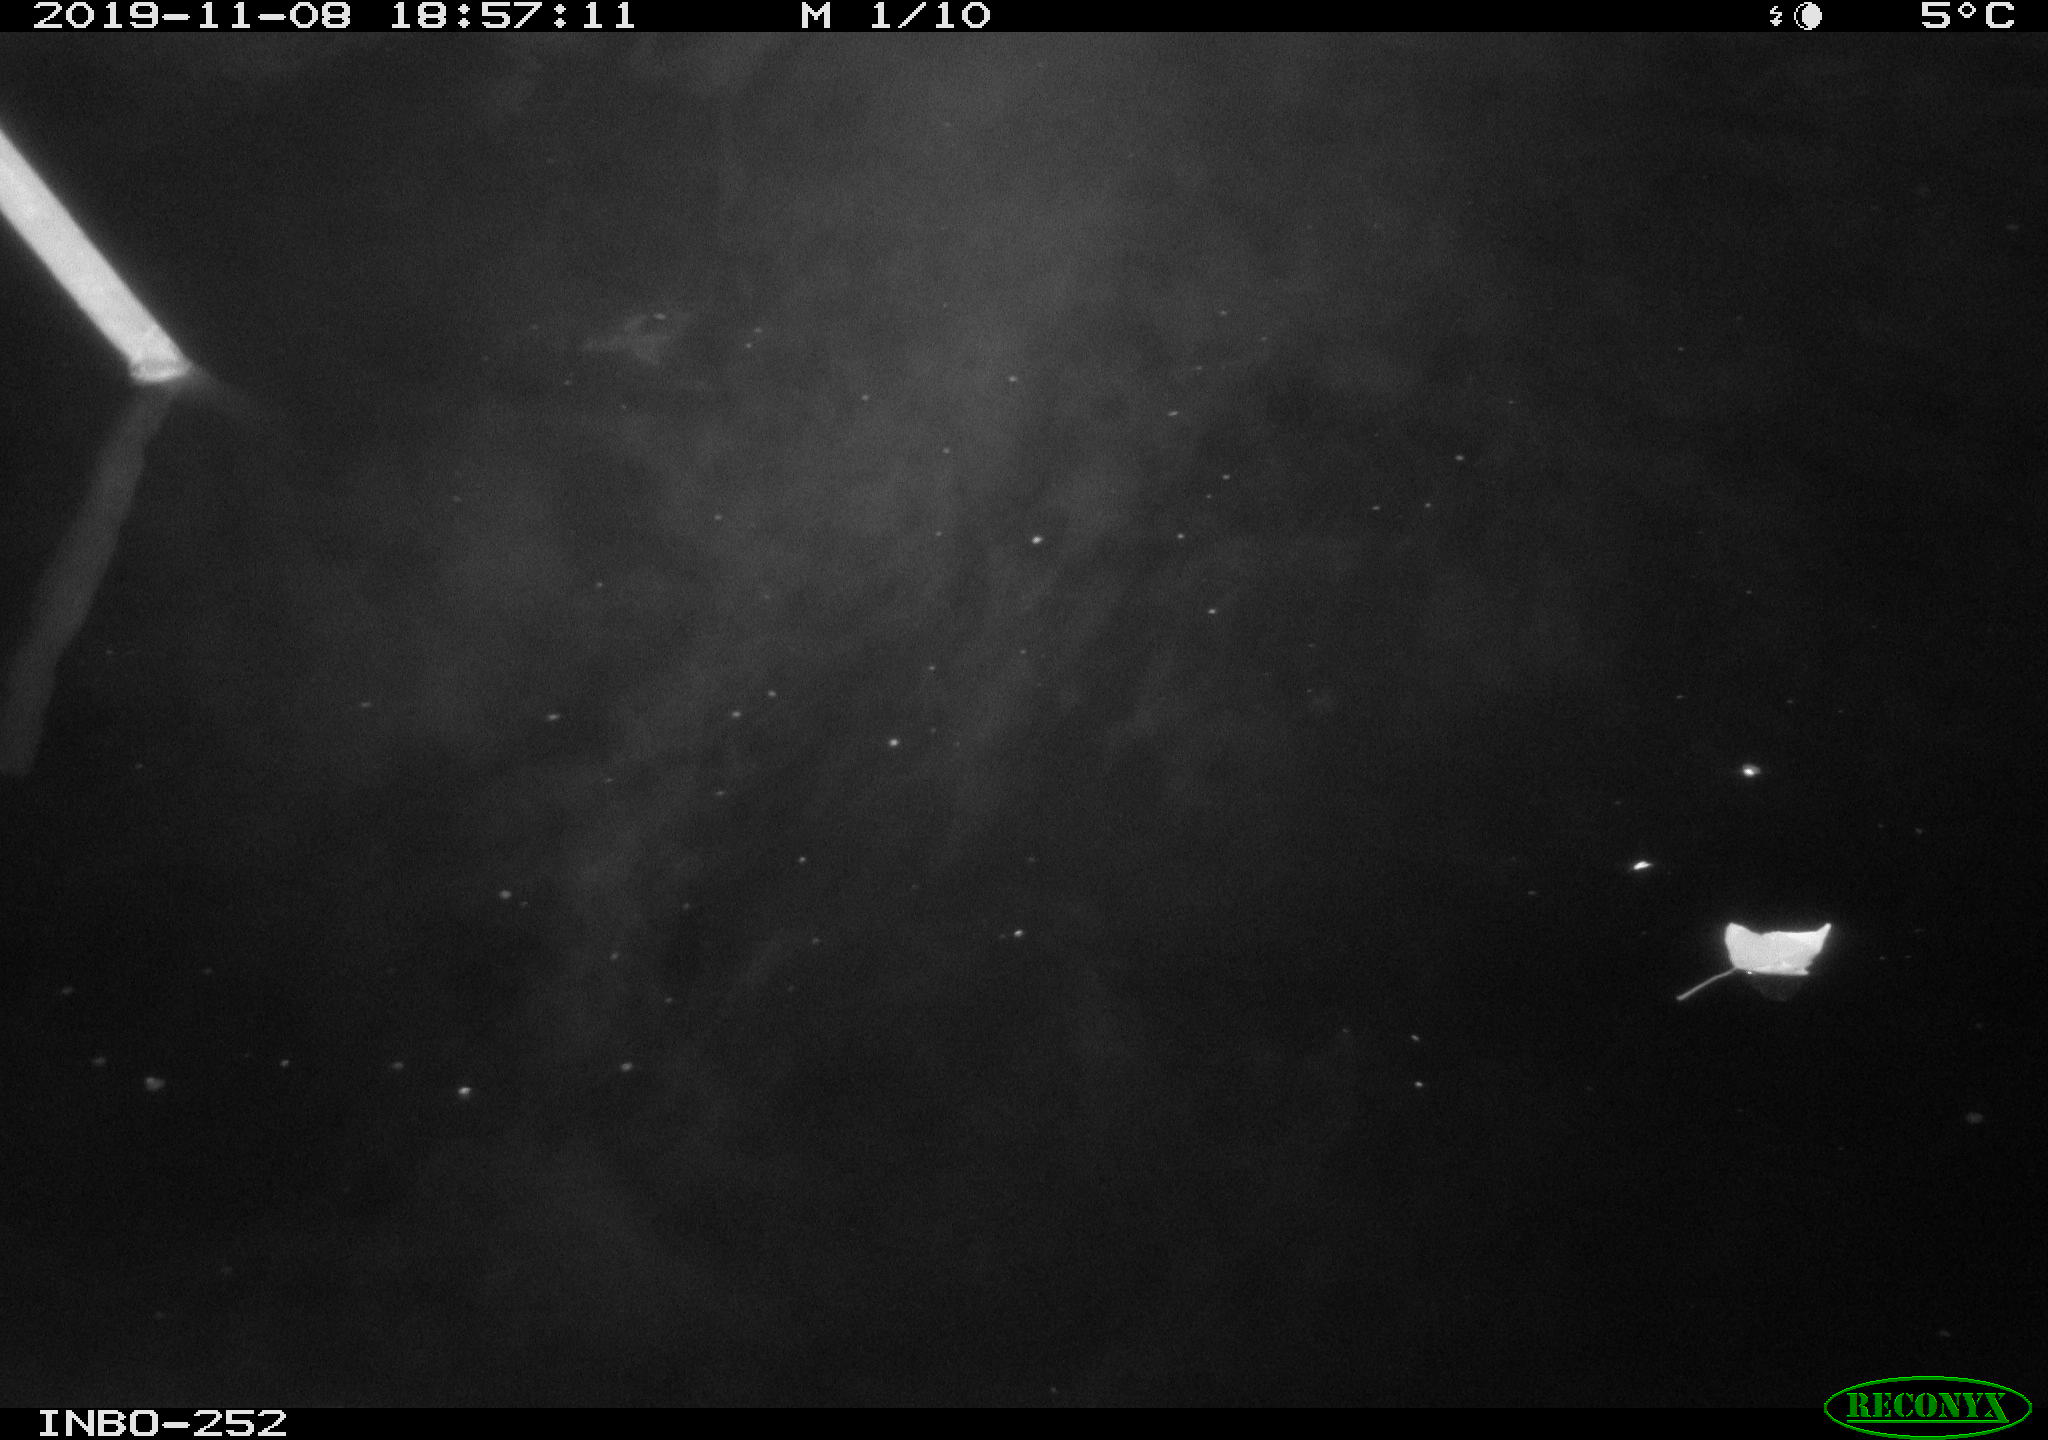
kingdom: Animalia
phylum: Chordata
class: Aves
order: Anseriformes
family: Anatidae
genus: Anas
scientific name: Anas platyrhynchos
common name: Mallard
